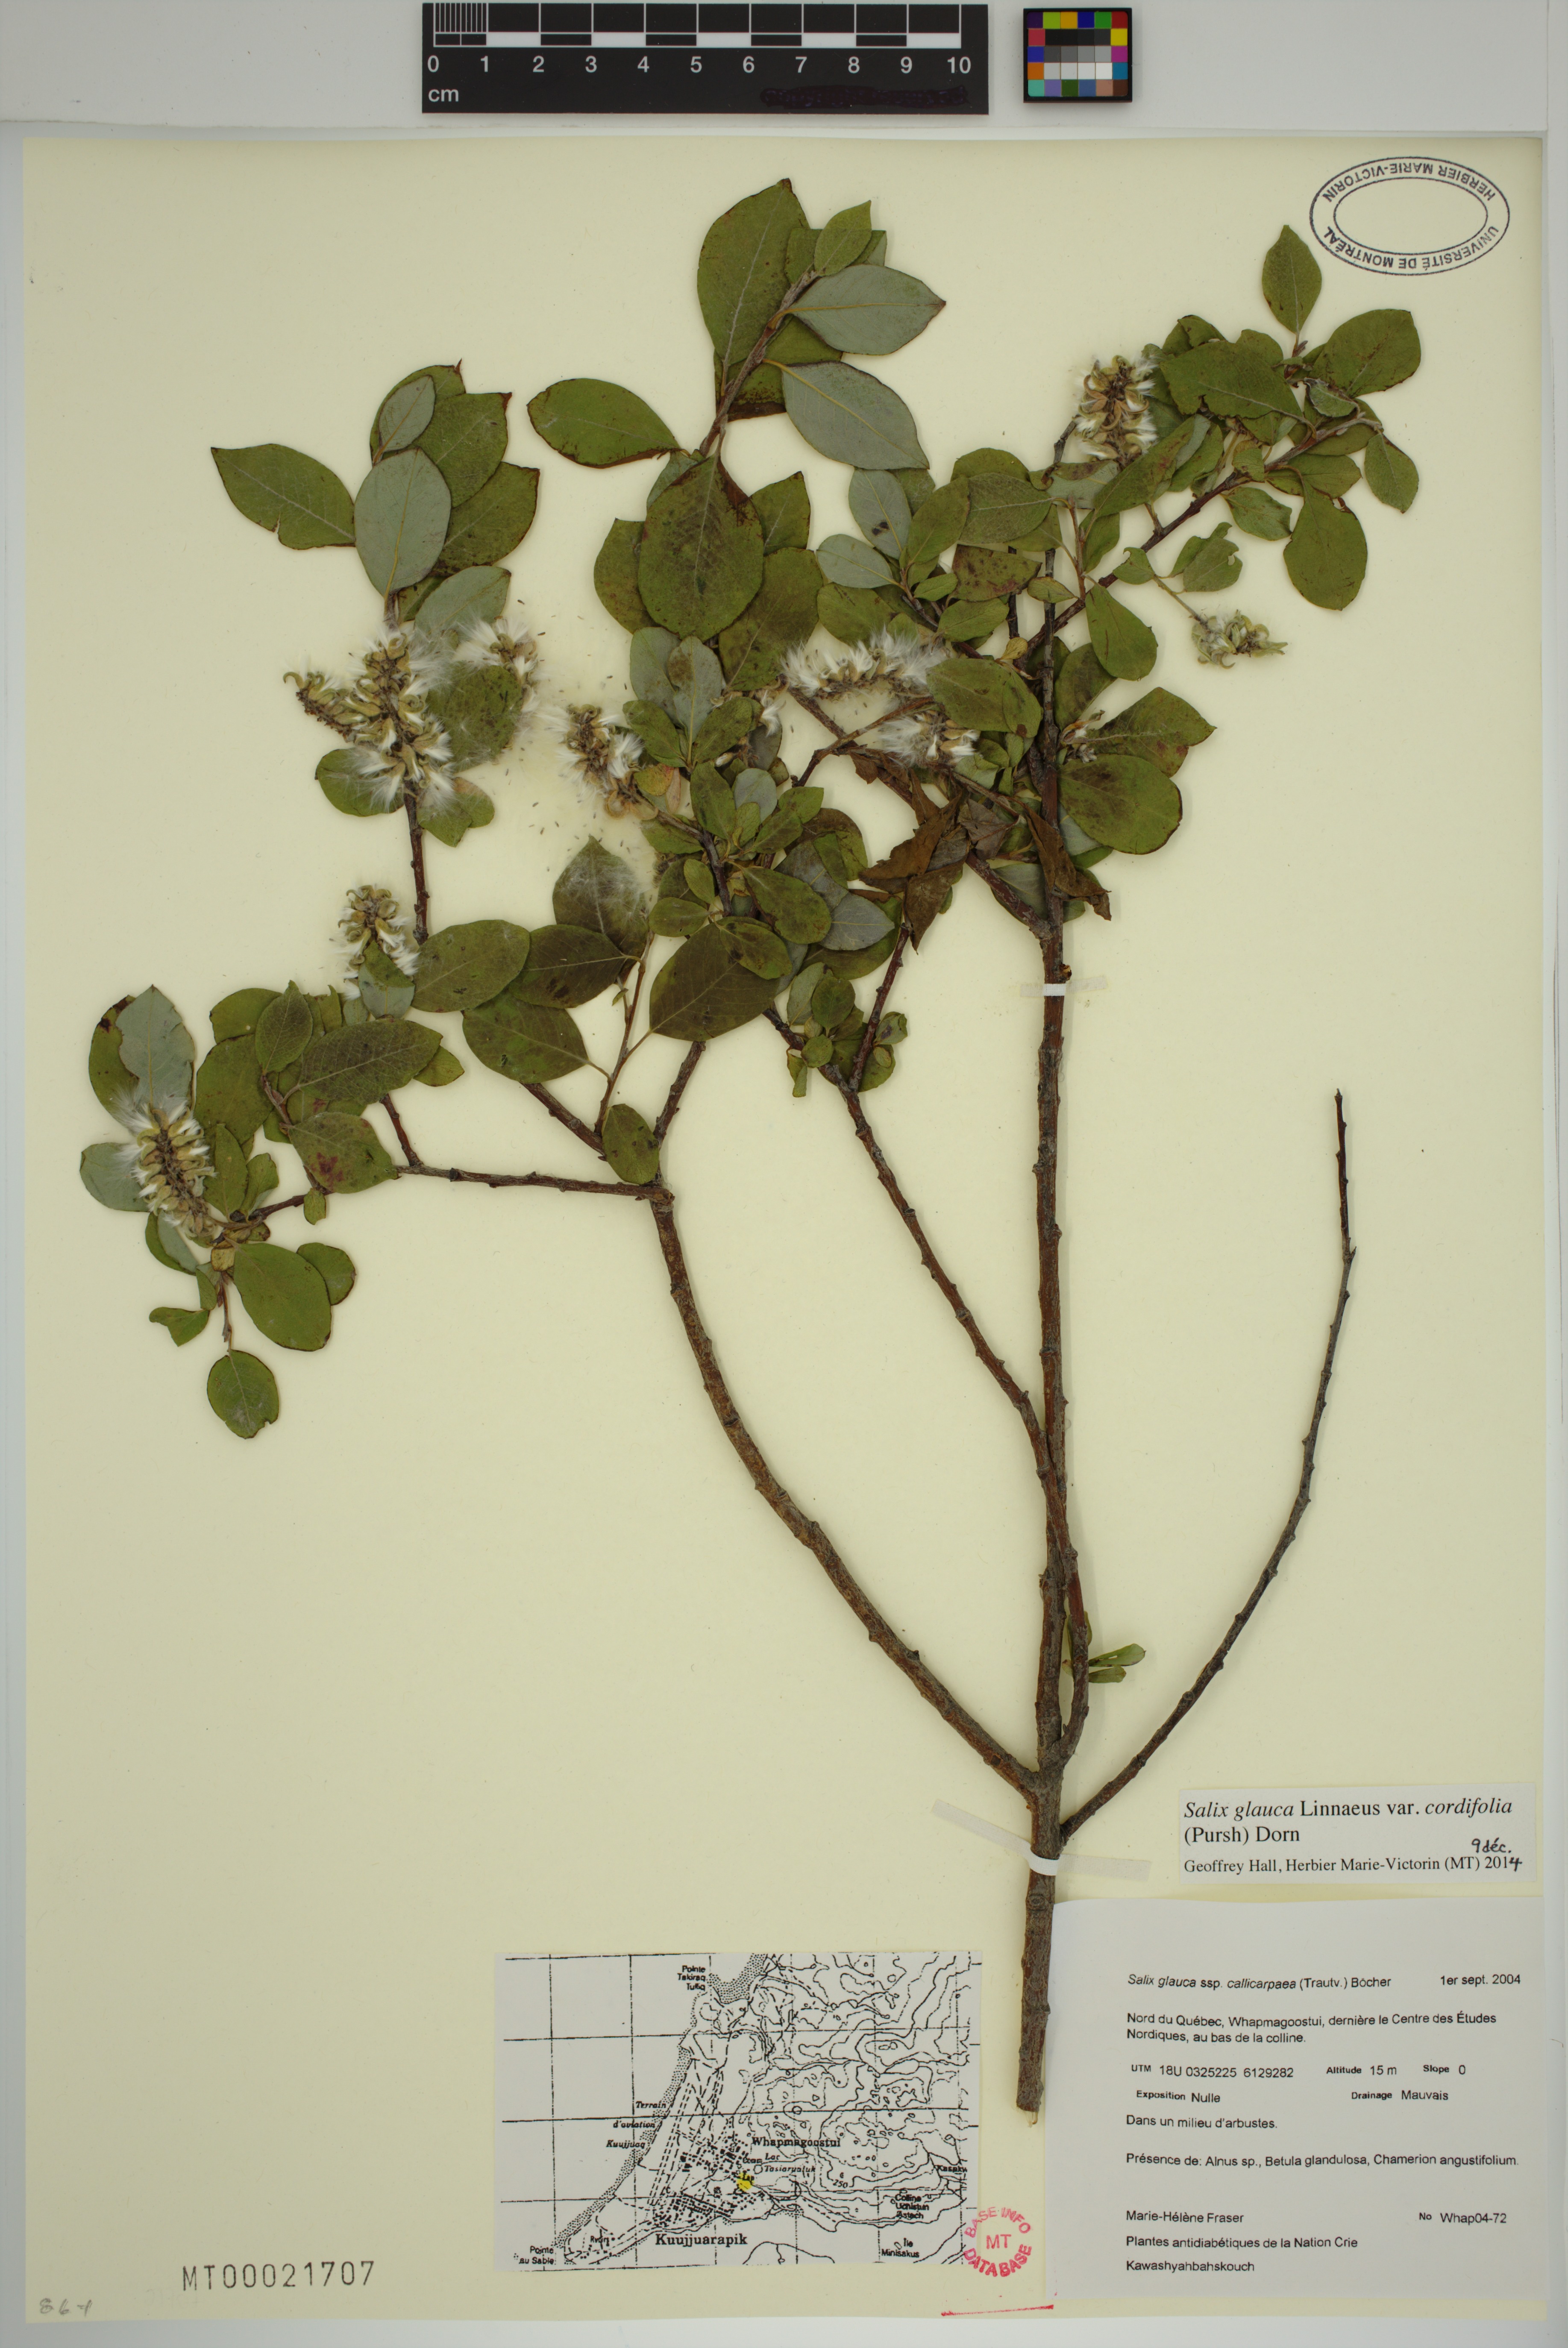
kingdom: Plantae
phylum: Tracheophyta
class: Magnoliopsida
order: Malpighiales
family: Salicaceae
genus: Salix
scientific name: Salix glauca
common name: Glaucous willow
